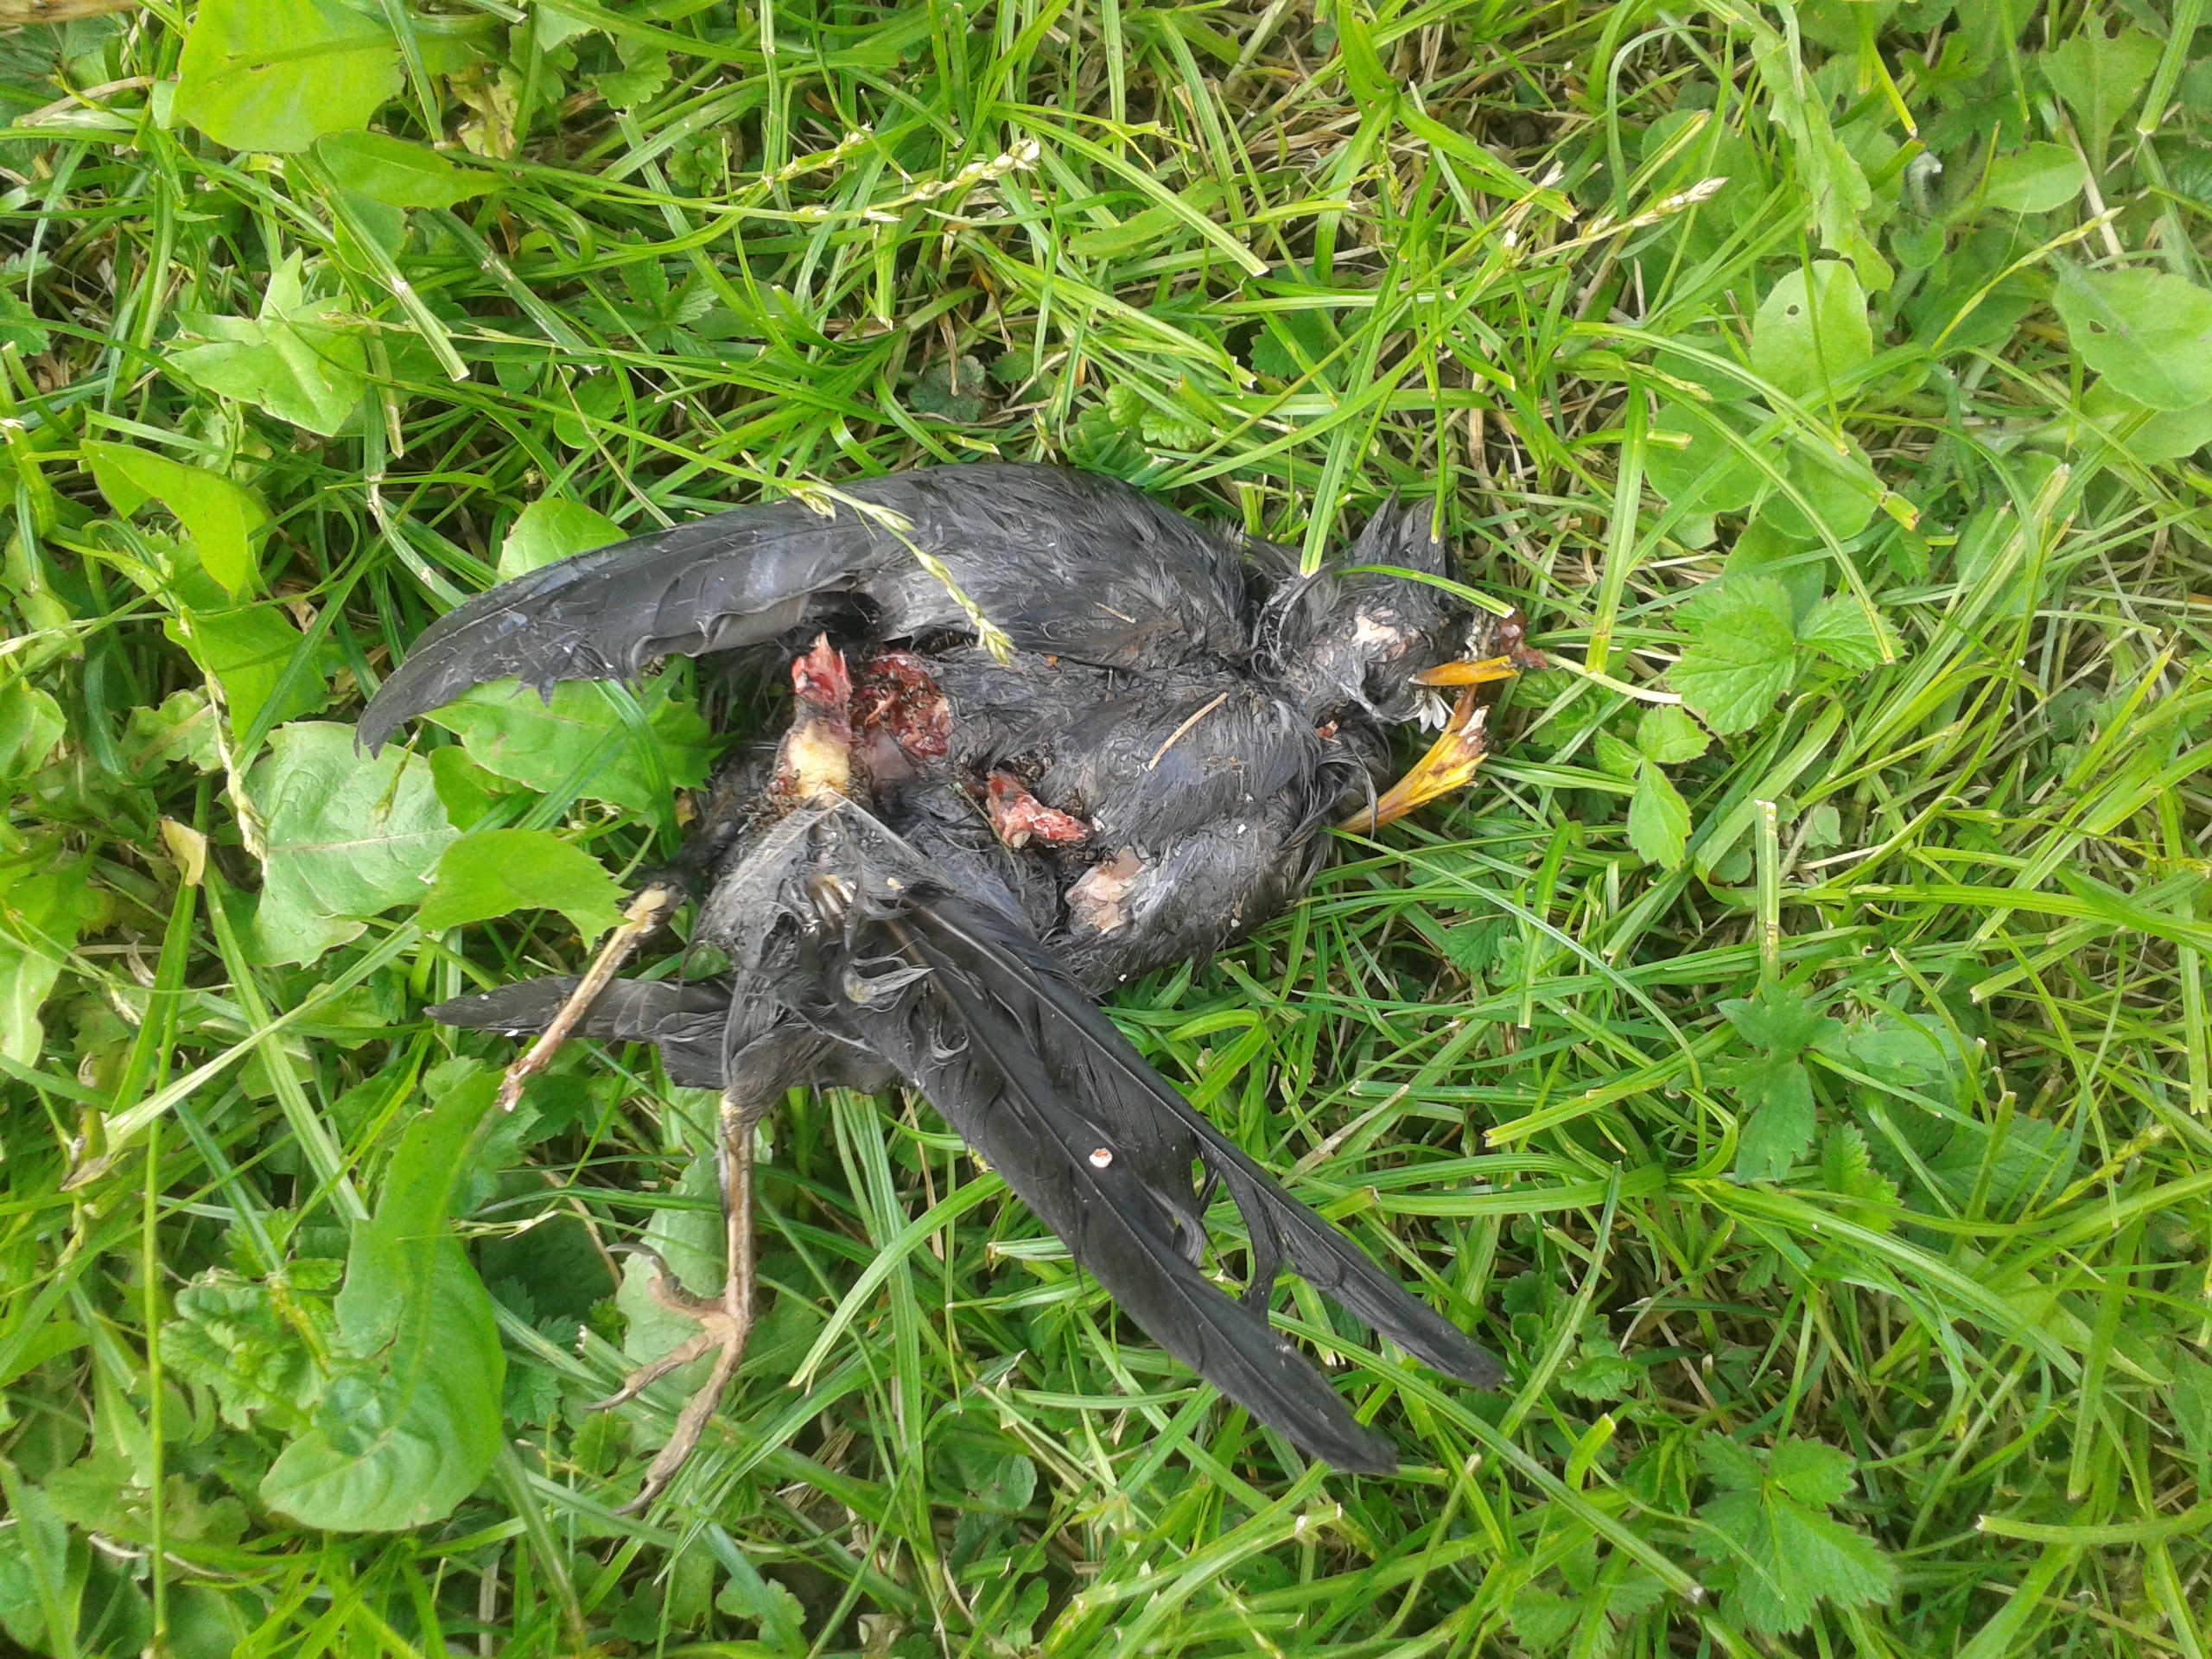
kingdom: Animalia
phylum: Chordata
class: Aves
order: Passeriformes
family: Turdidae
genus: Turdus
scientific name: Turdus merula
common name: Common blackbird
